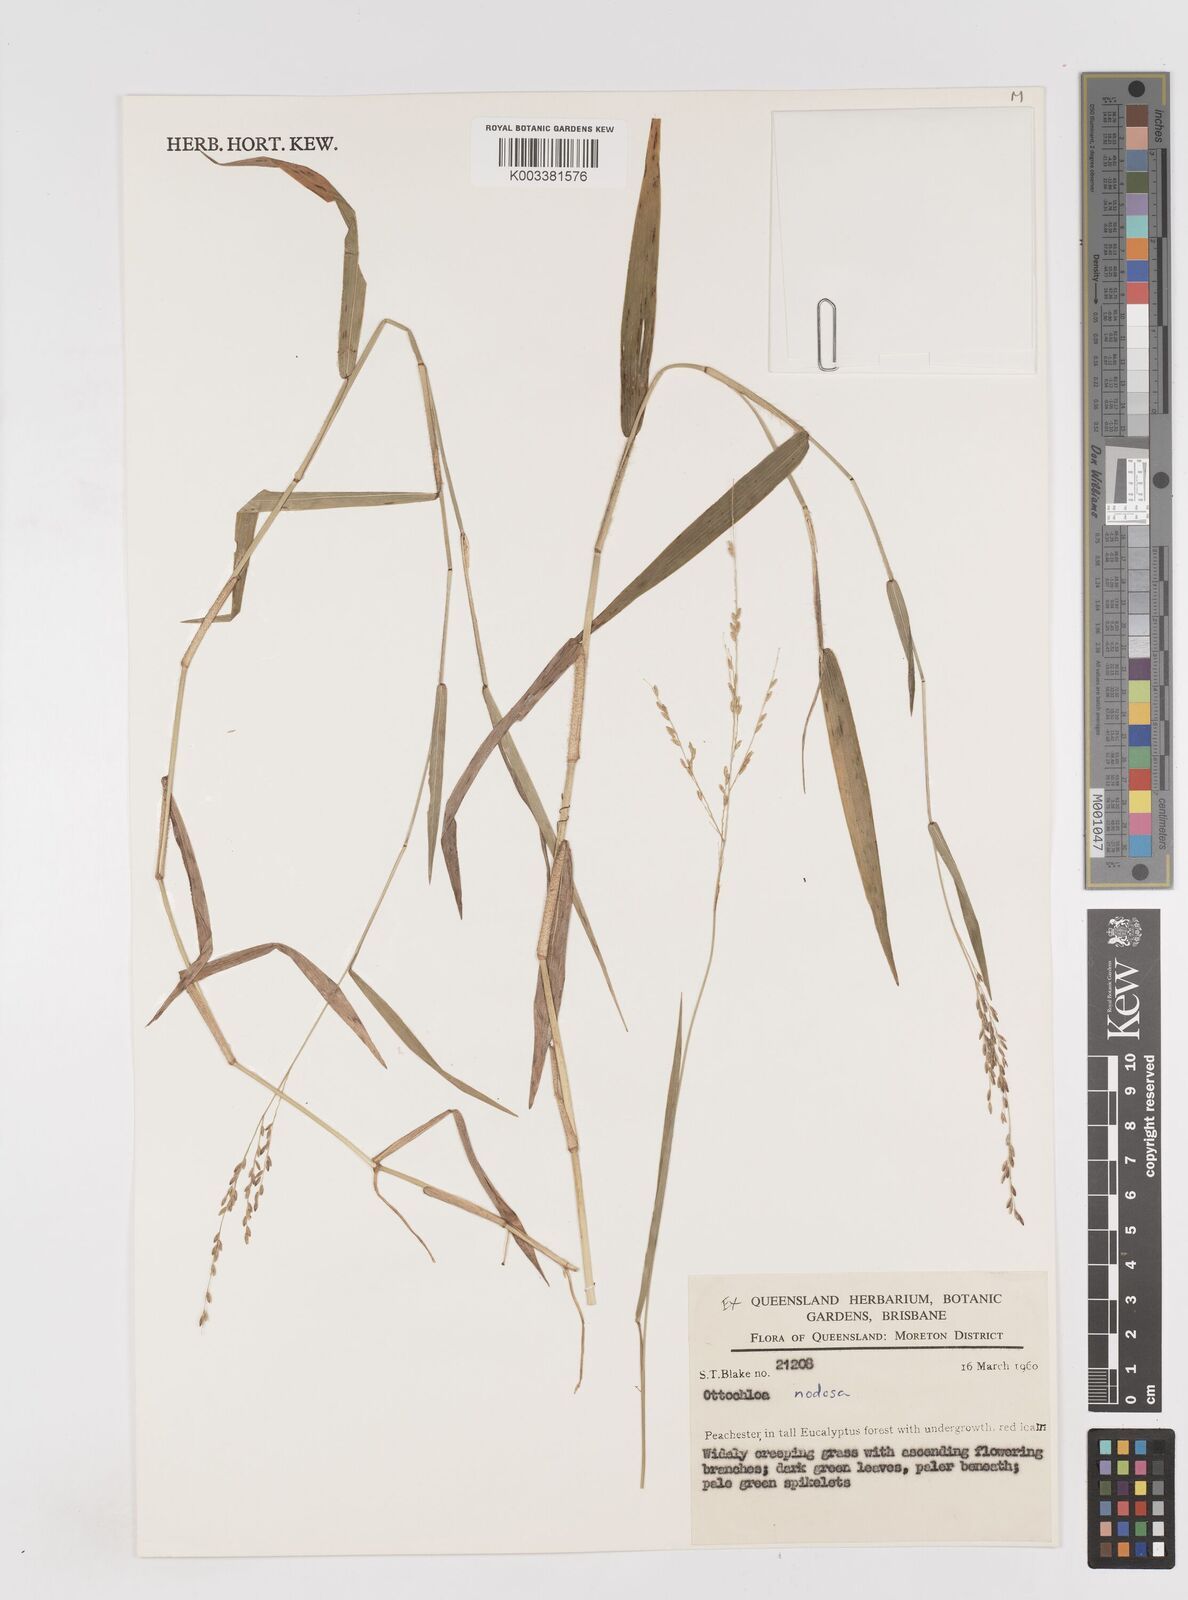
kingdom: Plantae
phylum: Tracheophyta
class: Liliopsida
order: Poales
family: Poaceae
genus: Ottochloa
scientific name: Ottochloa nodosa
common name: Slender-panic grass
